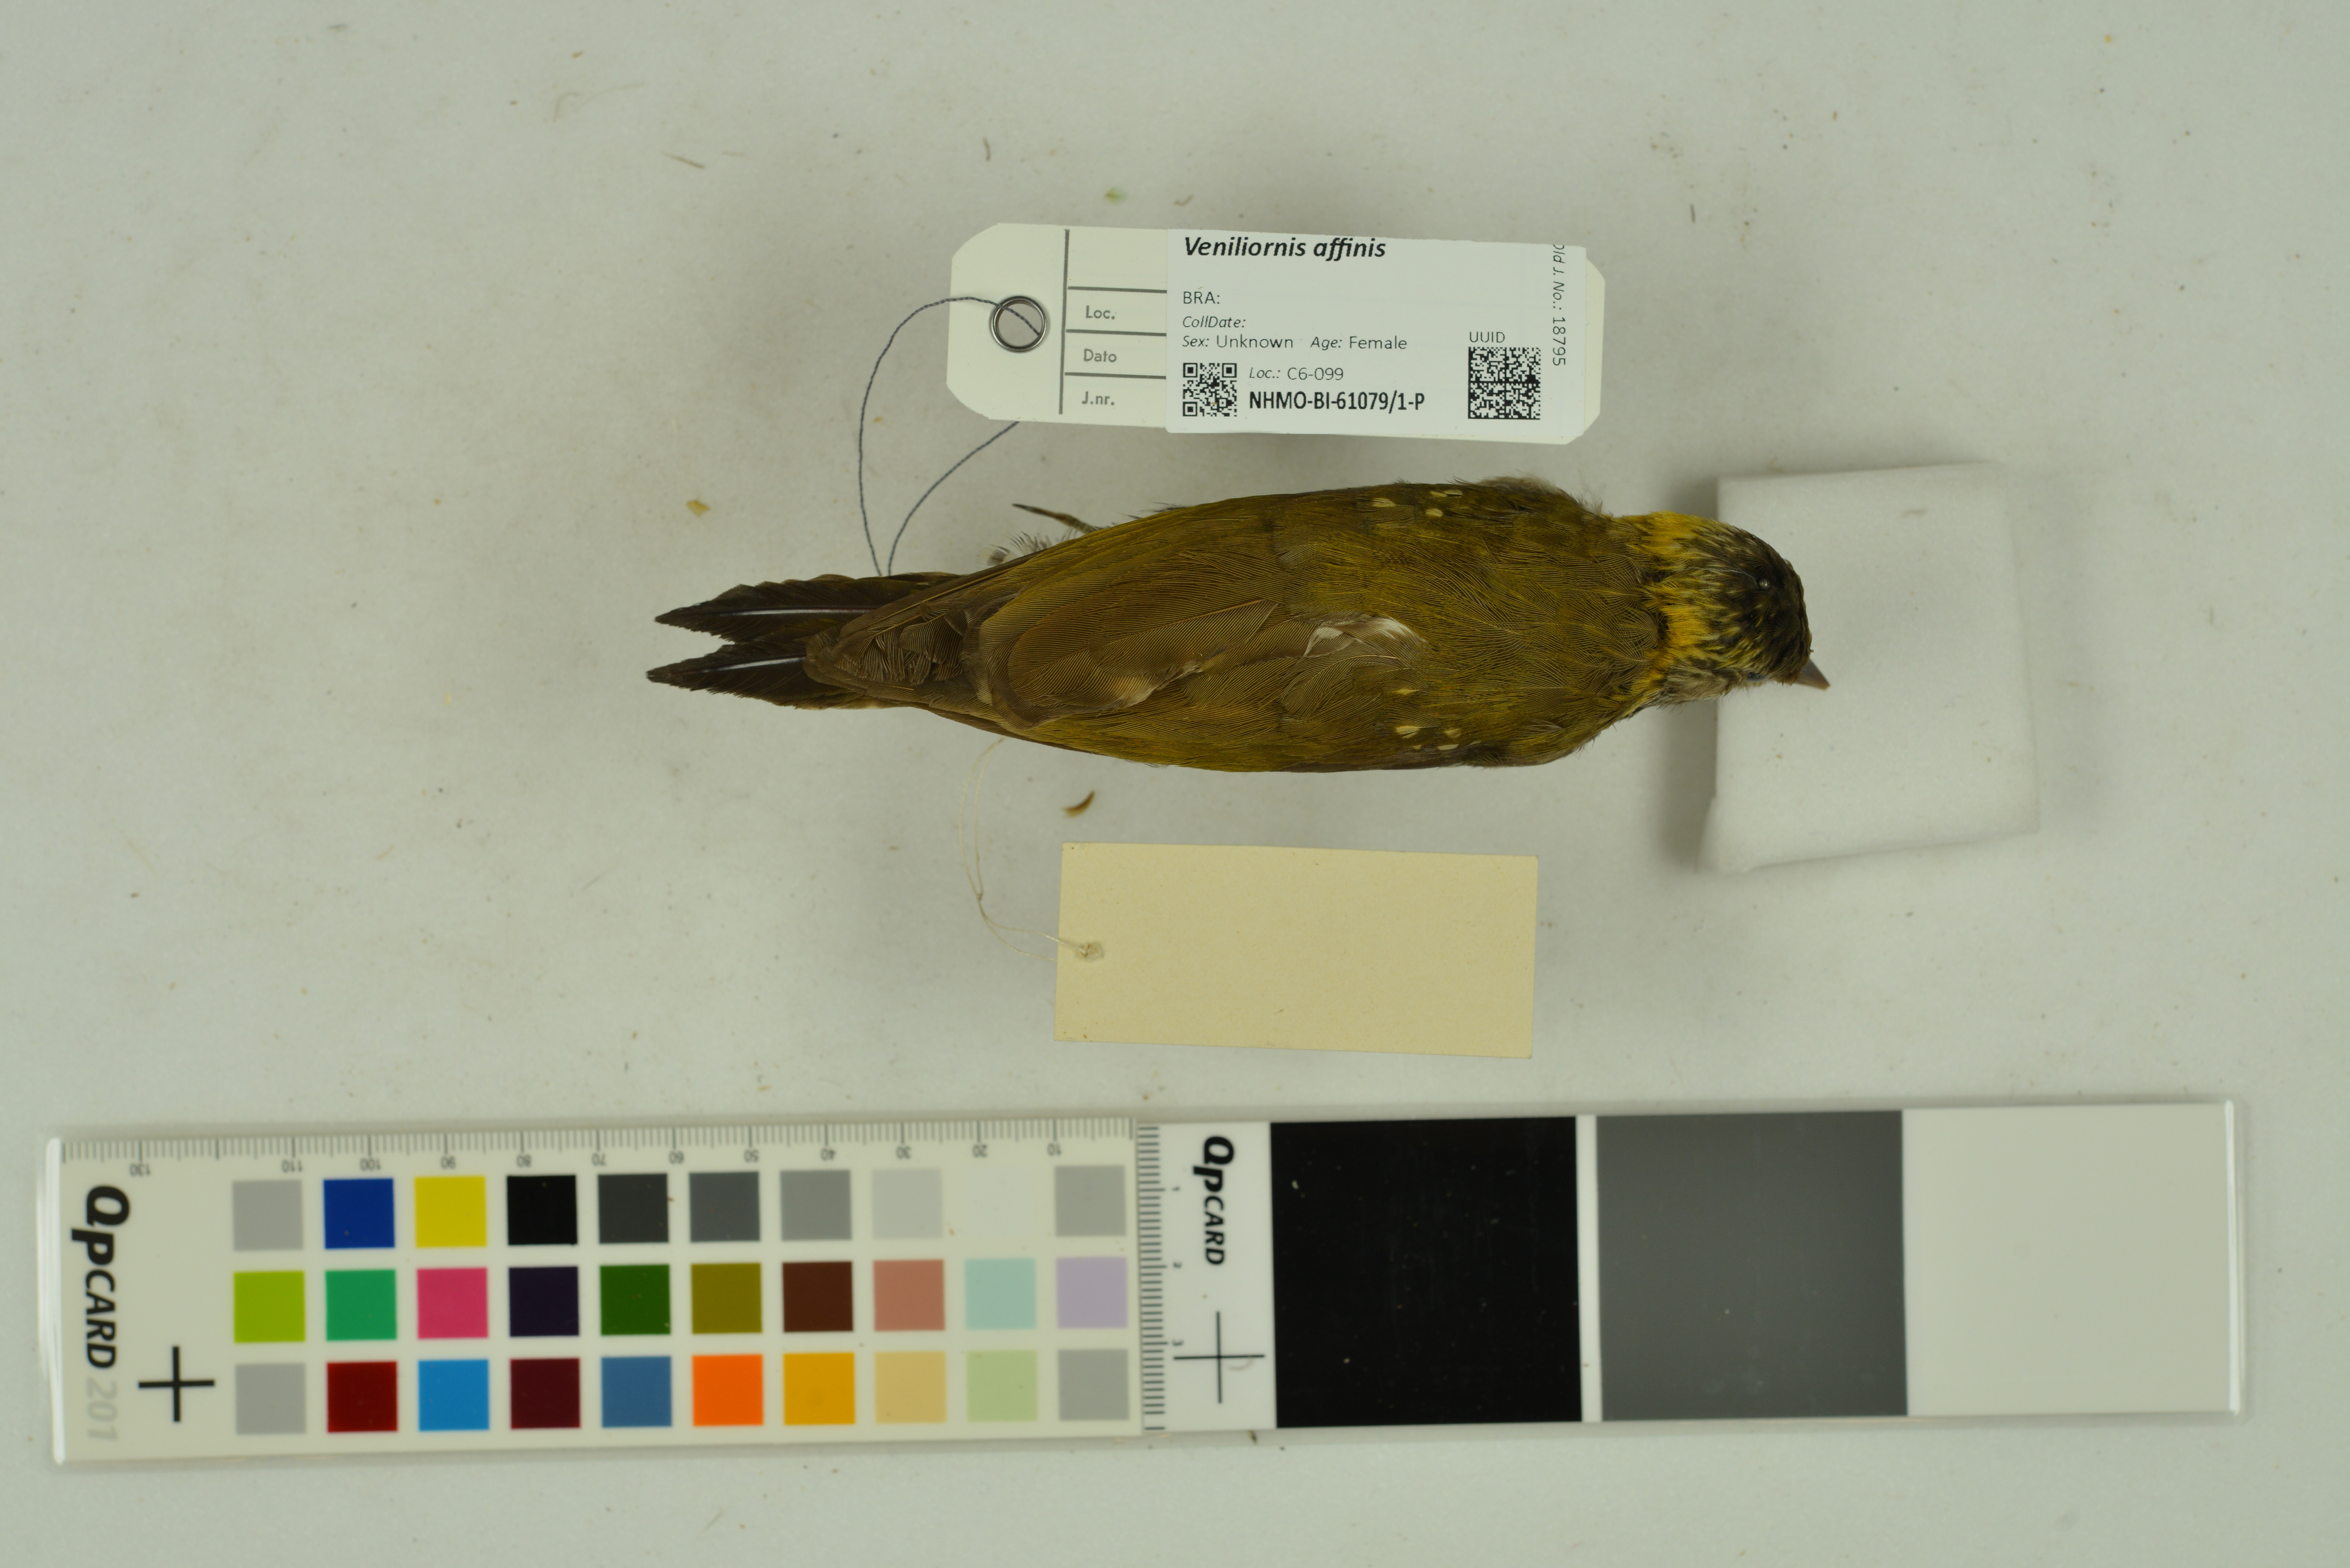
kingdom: Animalia
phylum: Chordata
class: Aves
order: Piciformes
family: Picidae
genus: Veniliornis
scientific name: Veniliornis affinis
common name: Red-stained woodpecker
